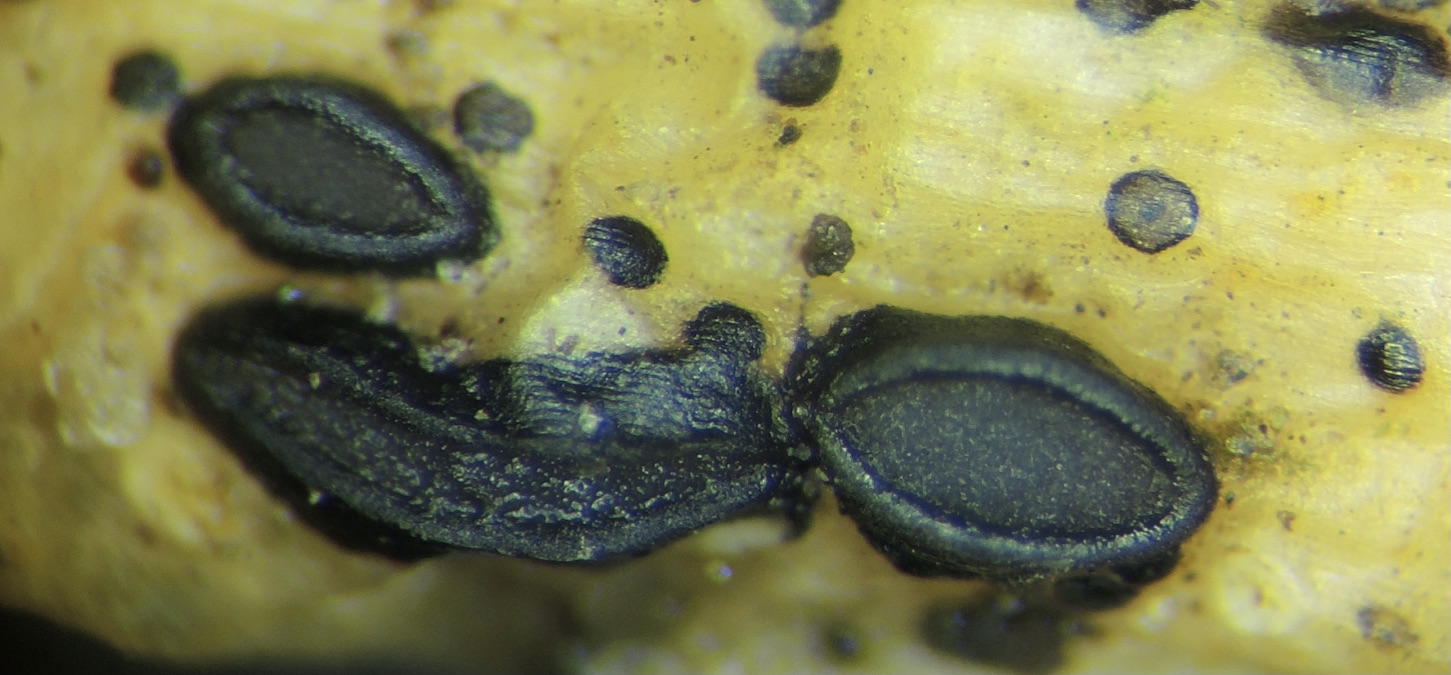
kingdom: Fungi
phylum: Ascomycota
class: Leotiomycetes
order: Rhytismatales
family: Rhytismataceae
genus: Hypoderma
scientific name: Hypoderma hederae
